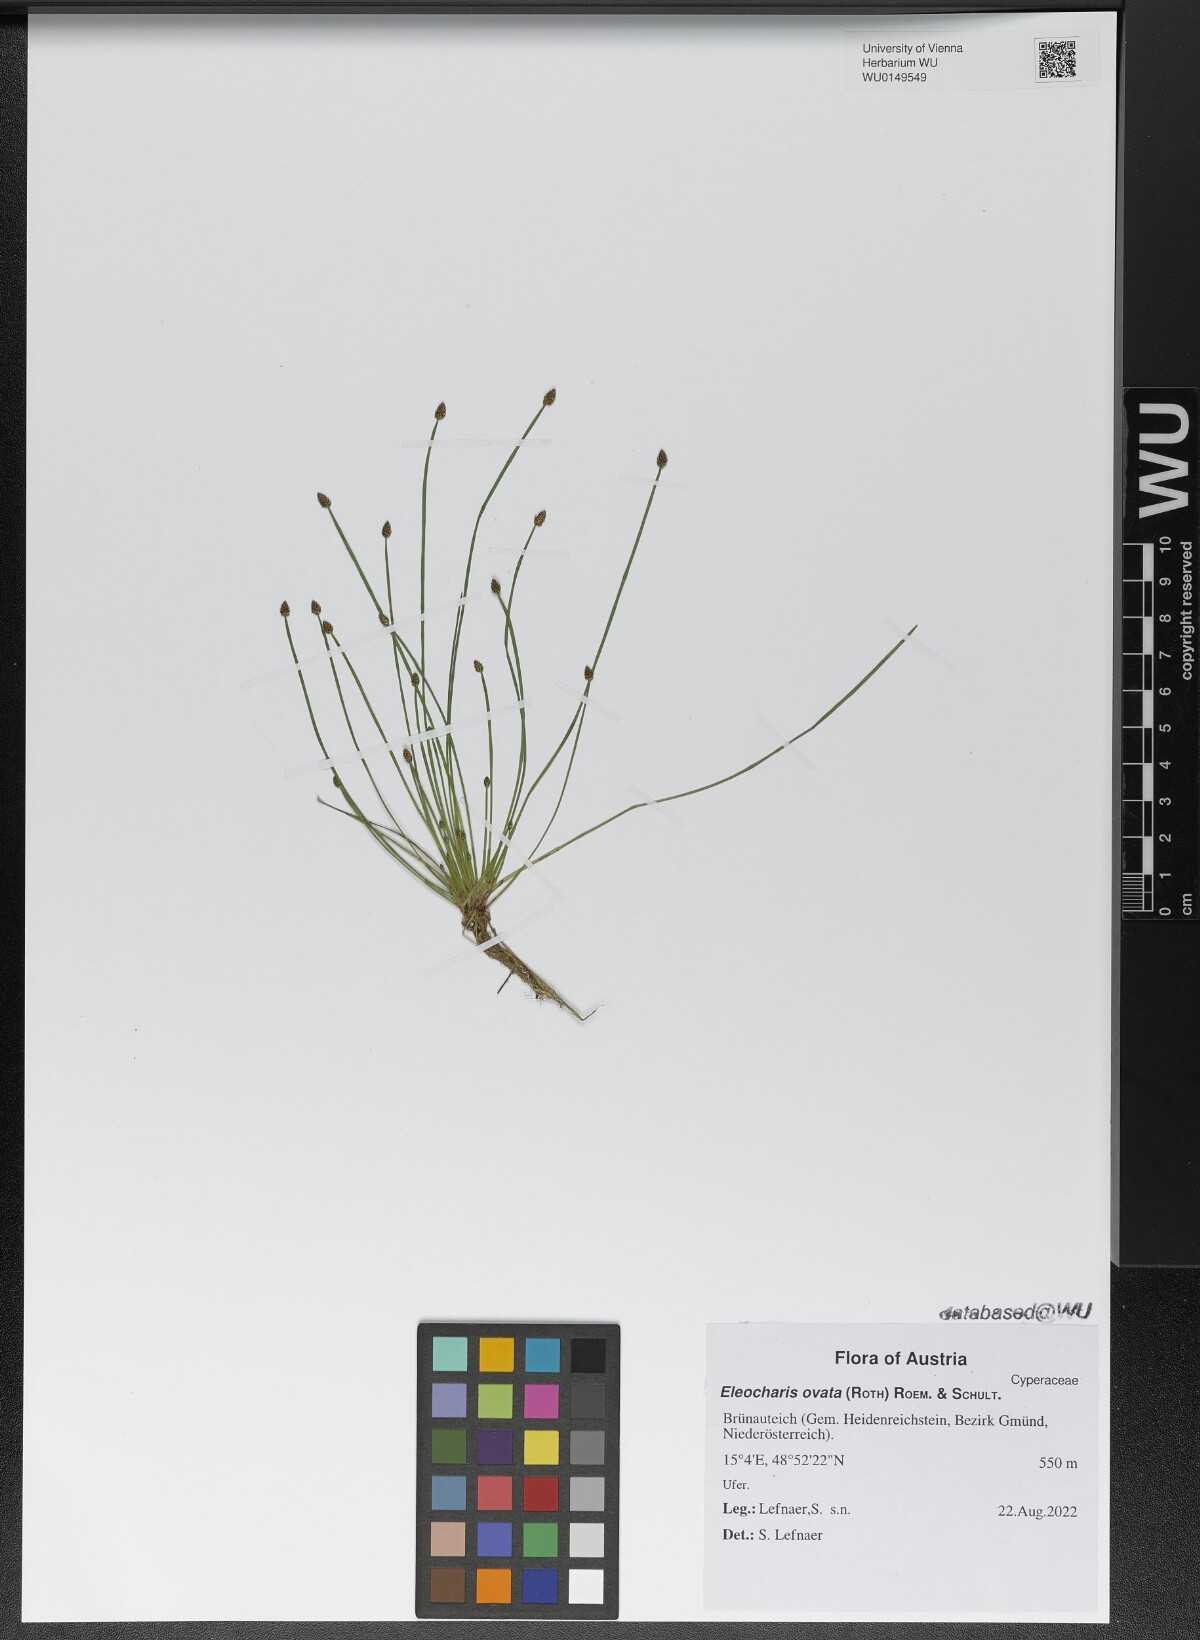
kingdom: Plantae
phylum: Tracheophyta
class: Liliopsida
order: Poales
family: Cyperaceae
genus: Eleocharis
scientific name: Eleocharis ovata
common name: Oval spike-rush
